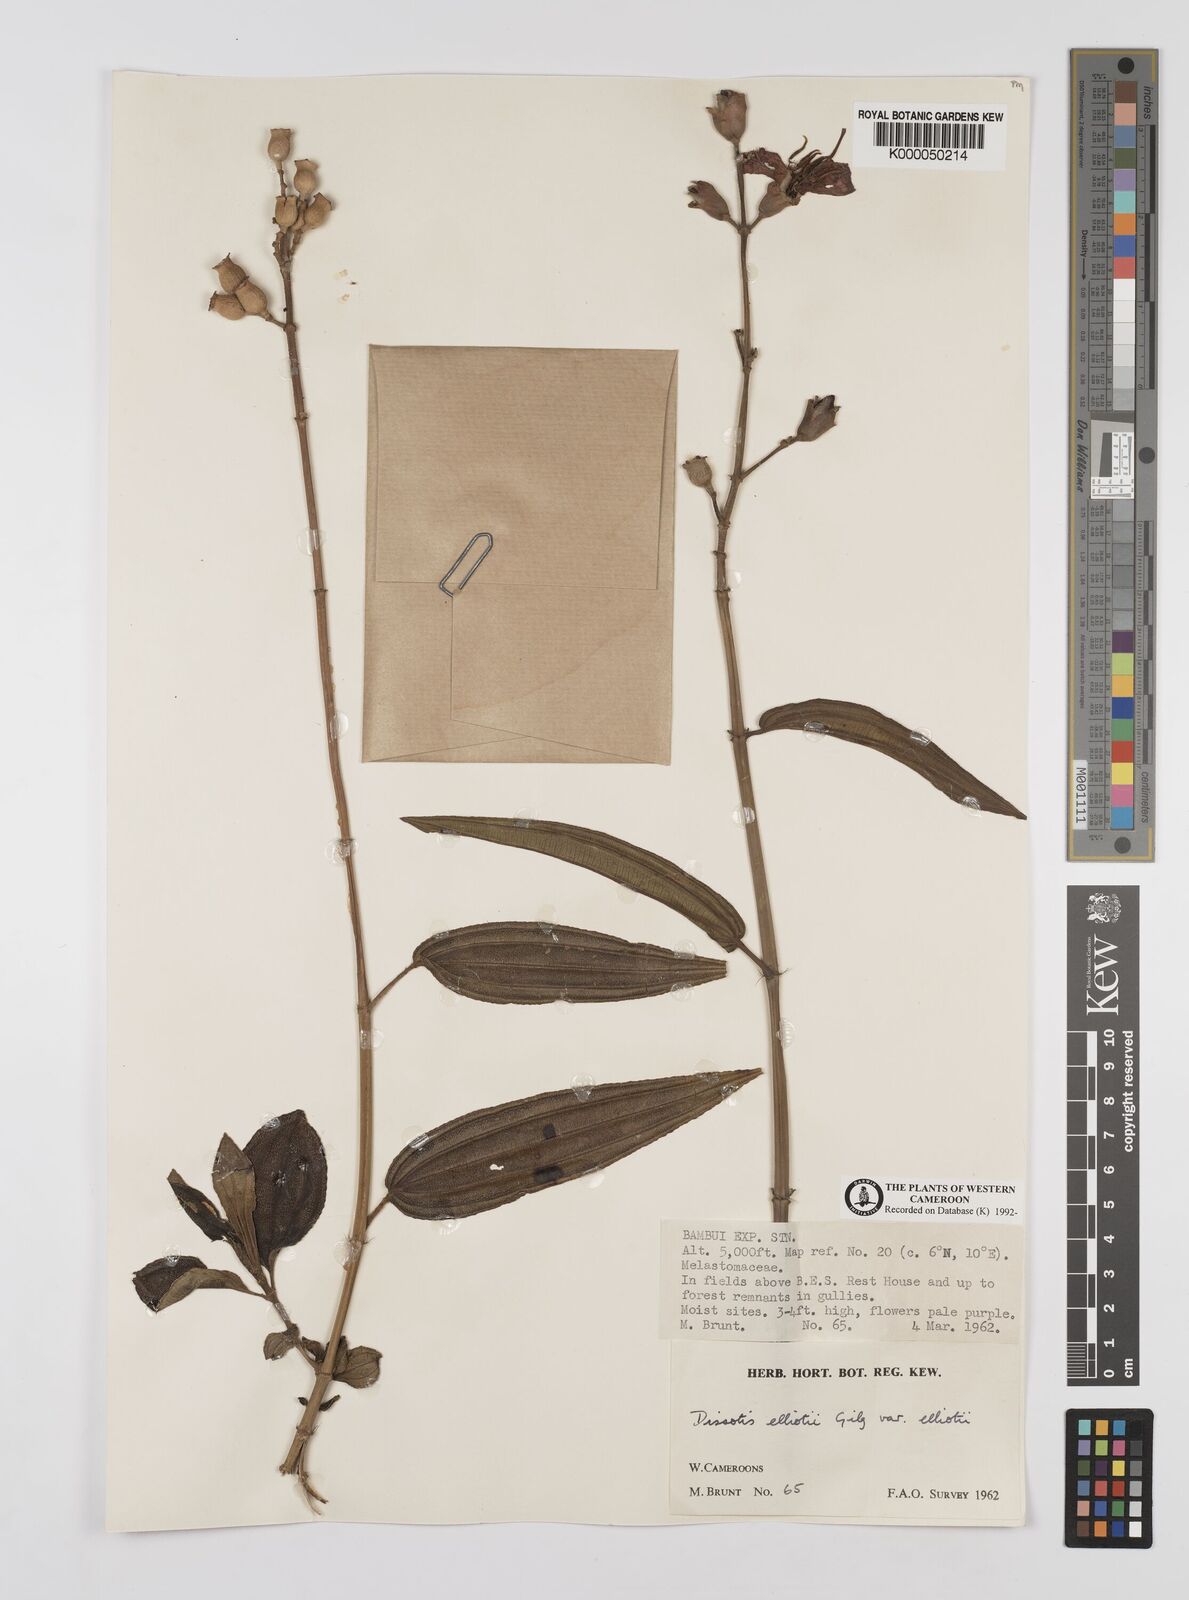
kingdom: Plantae
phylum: Tracheophyta
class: Magnoliopsida
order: Myrtales
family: Melastomataceae
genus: Dissotis
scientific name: Dissotis
